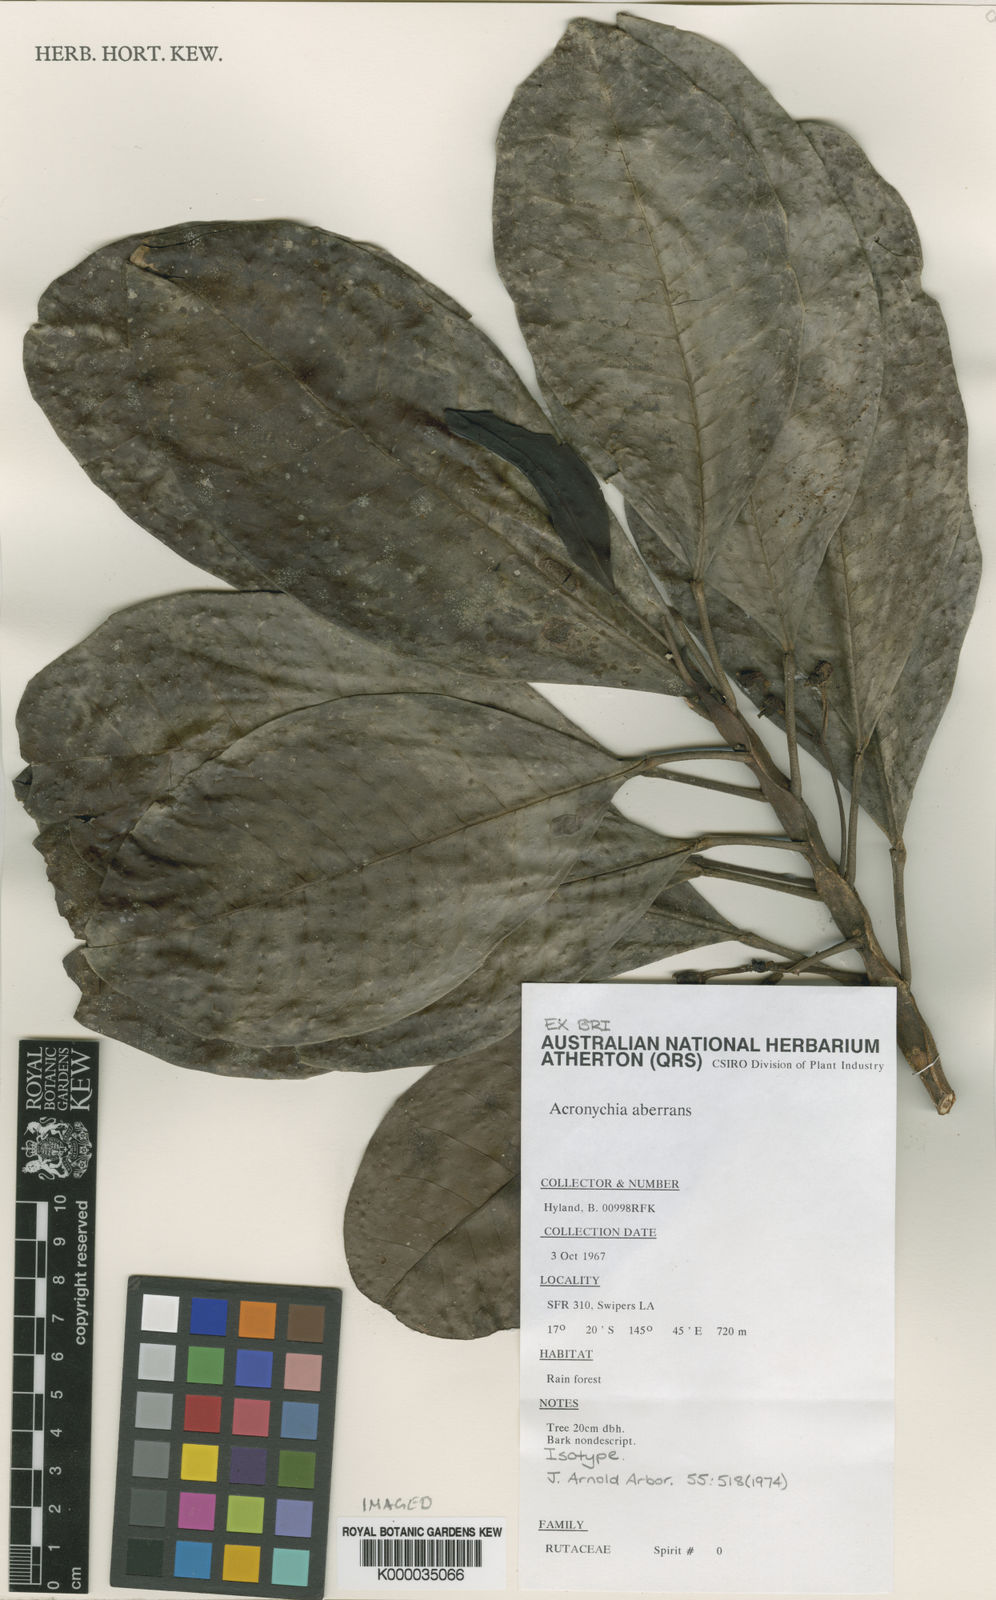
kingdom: Plantae
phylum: Tracheophyta
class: Magnoliopsida
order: Sapindales
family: Rutaceae
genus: Acronychia
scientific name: Acronychia aberrans
